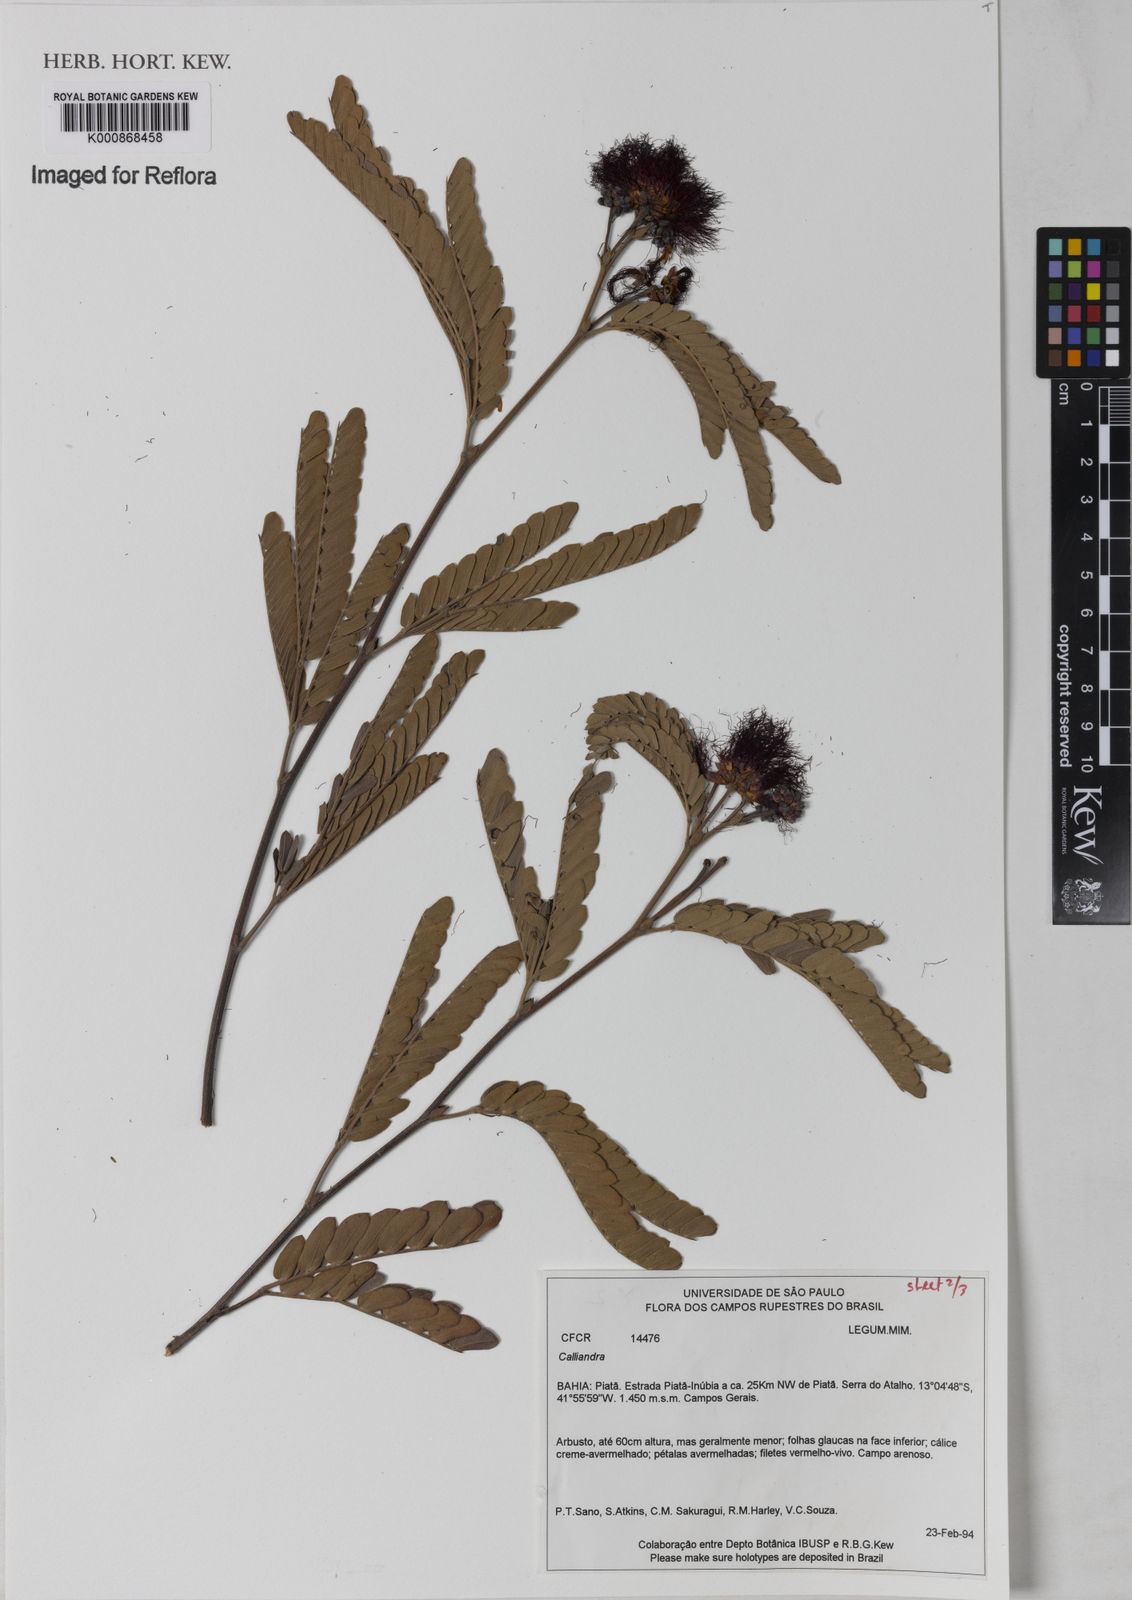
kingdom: Plantae
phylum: Tracheophyta
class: Magnoliopsida
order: Fabales
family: Fabaceae
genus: Calliandra
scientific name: Calliandra
